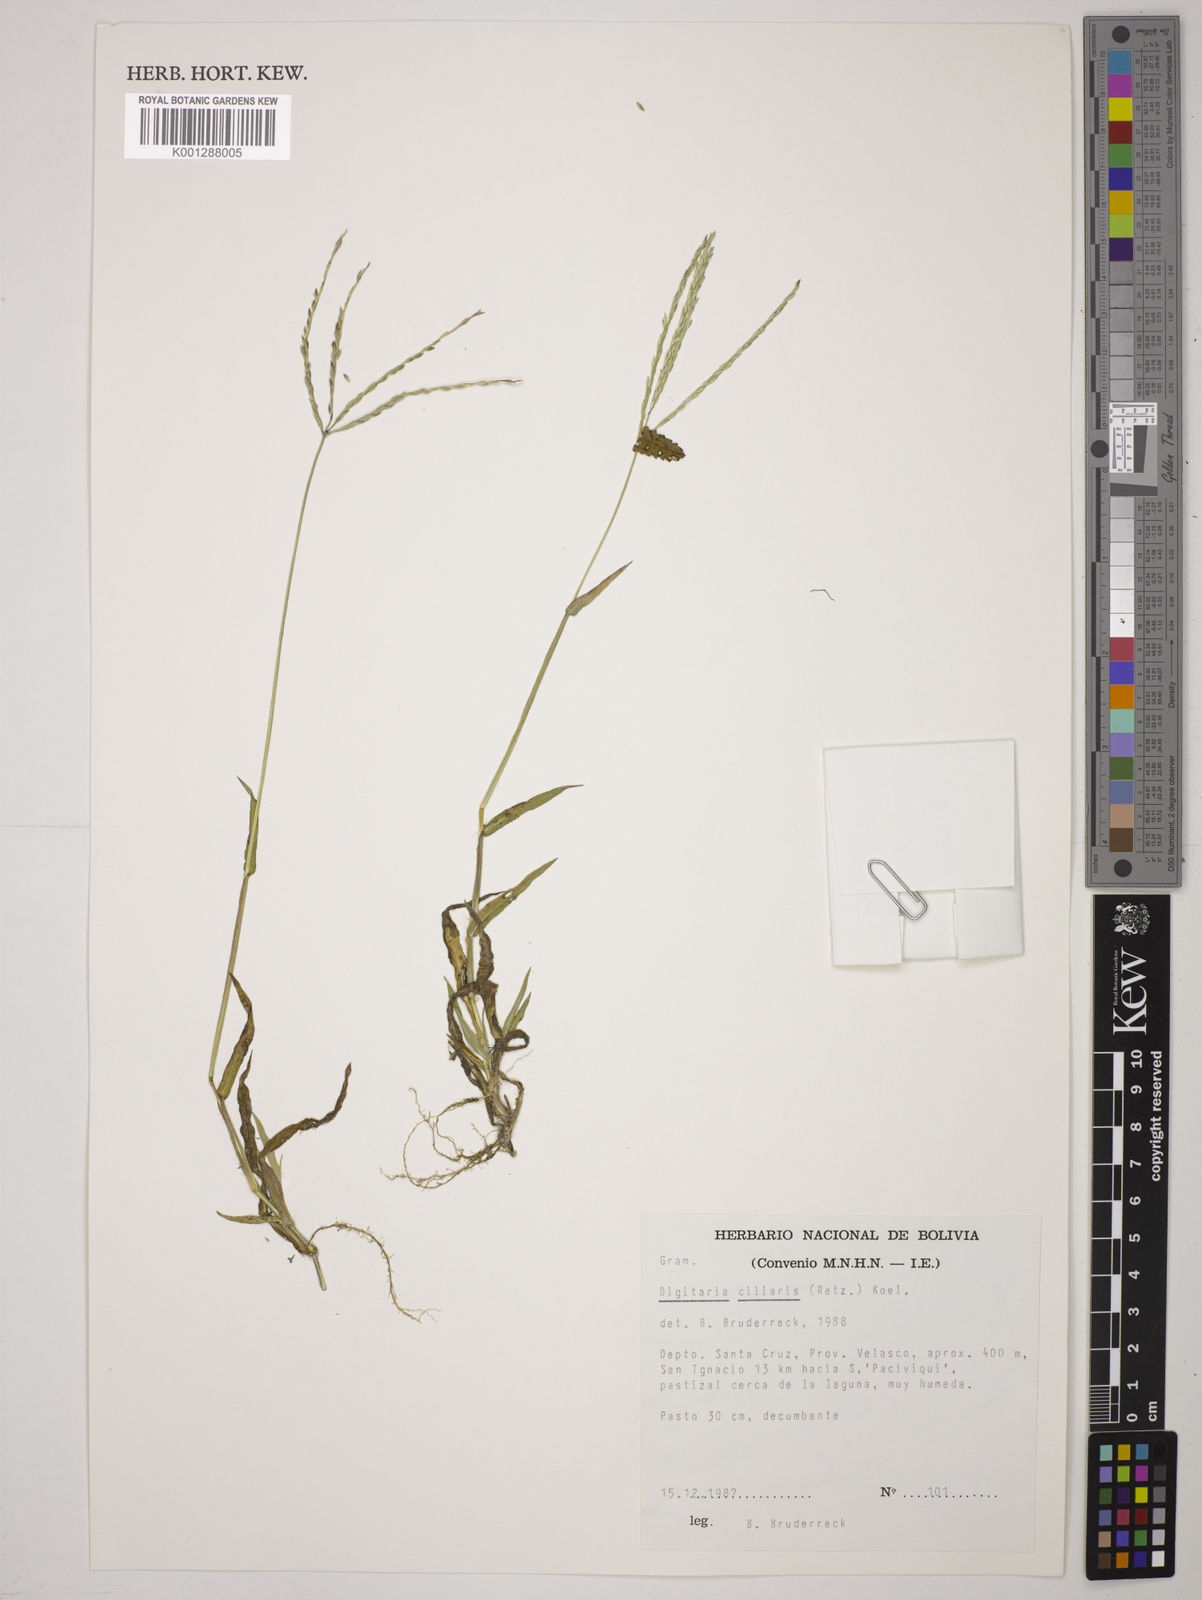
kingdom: Plantae
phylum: Tracheophyta
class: Liliopsida
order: Poales
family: Poaceae
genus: Digitaria
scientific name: Digitaria
